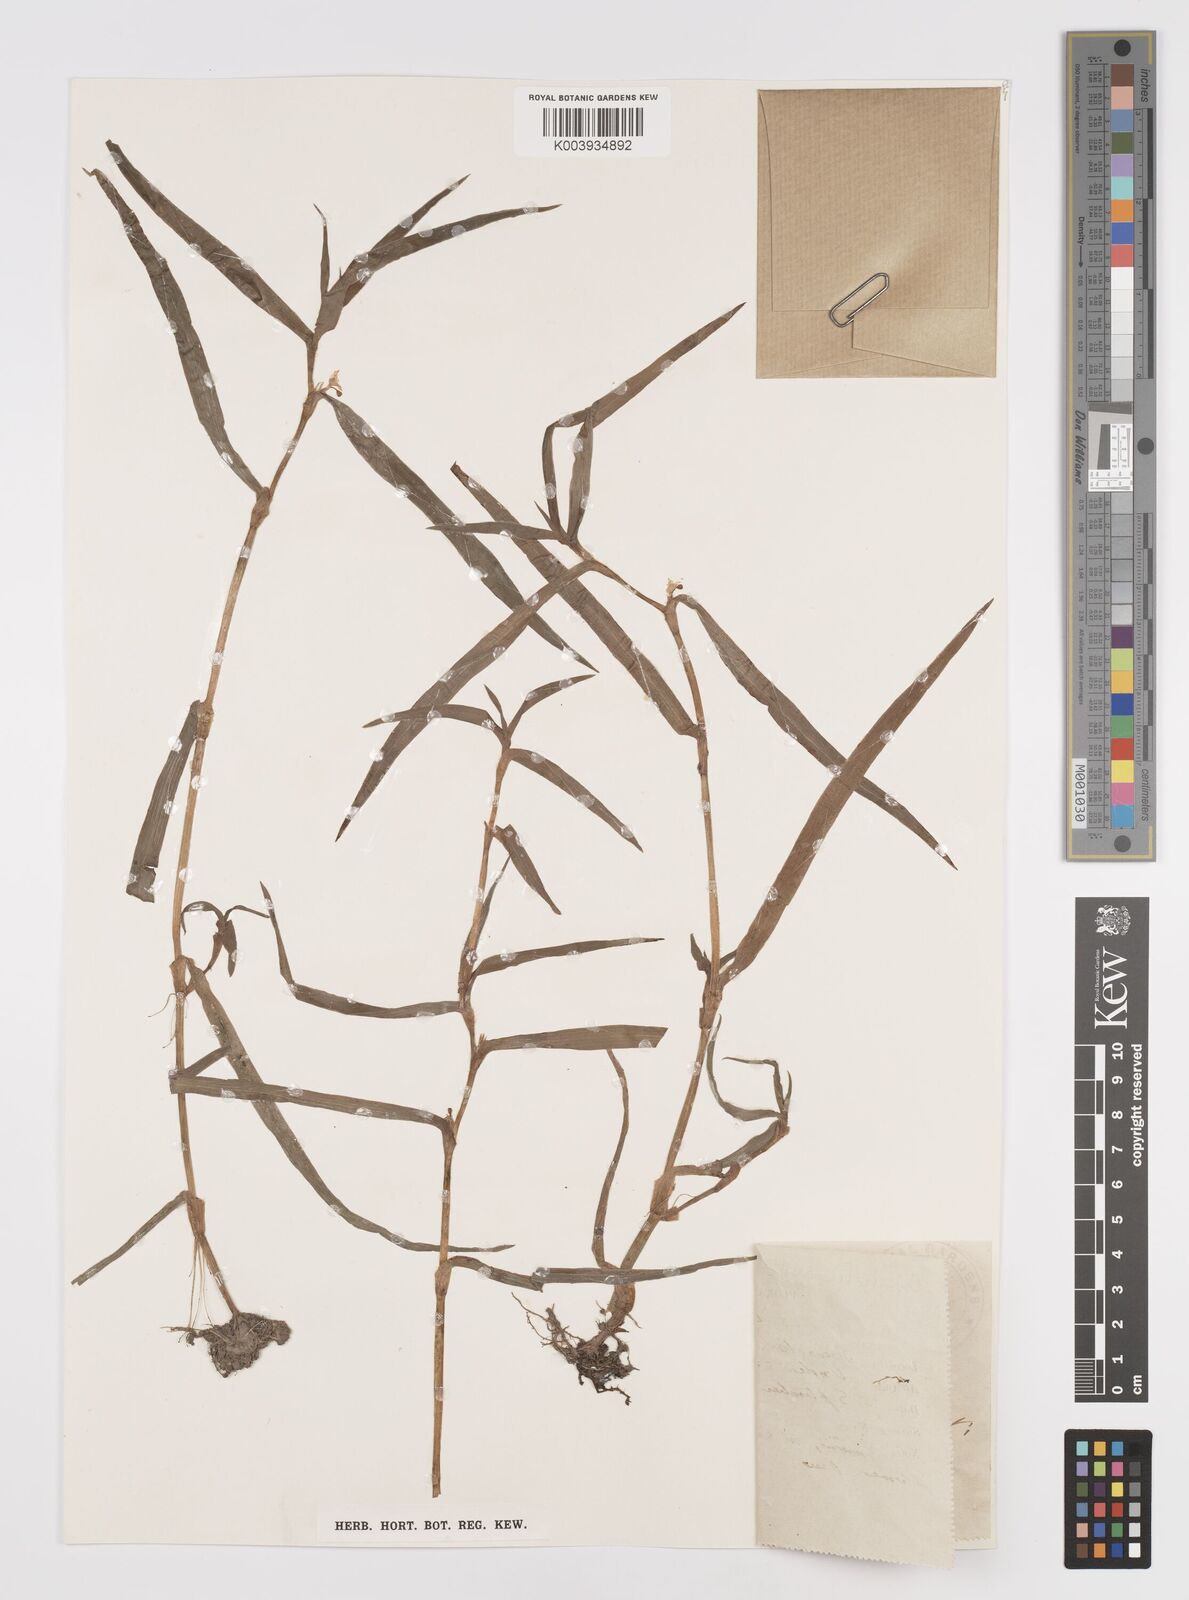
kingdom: Plantae
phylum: Tracheophyta
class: Liliopsida
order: Commelinales
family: Commelinaceae
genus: Cyanotis
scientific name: Cyanotis axillaris
